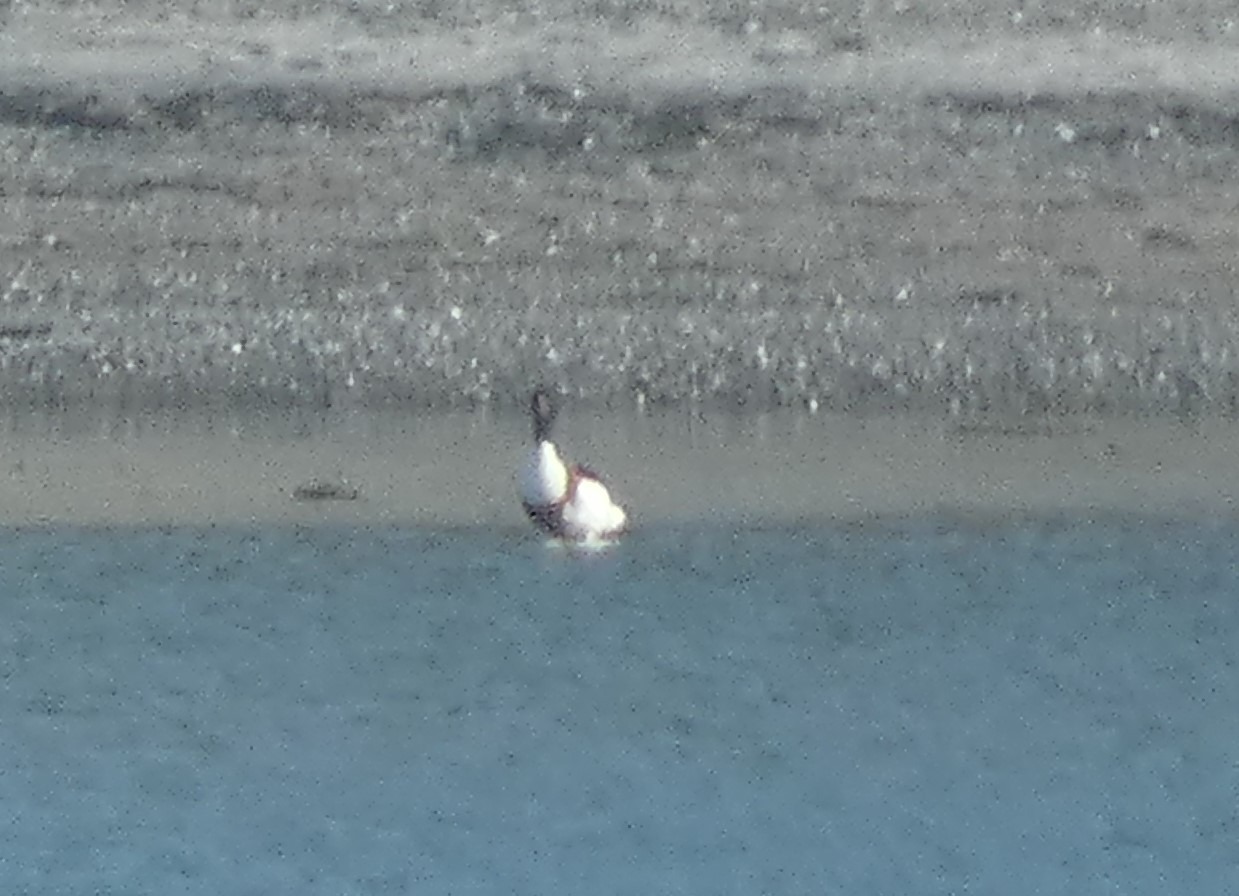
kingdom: Animalia
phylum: Chordata
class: Aves
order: Anseriformes
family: Anatidae
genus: Tadorna
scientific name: Tadorna tadorna
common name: Gravand
